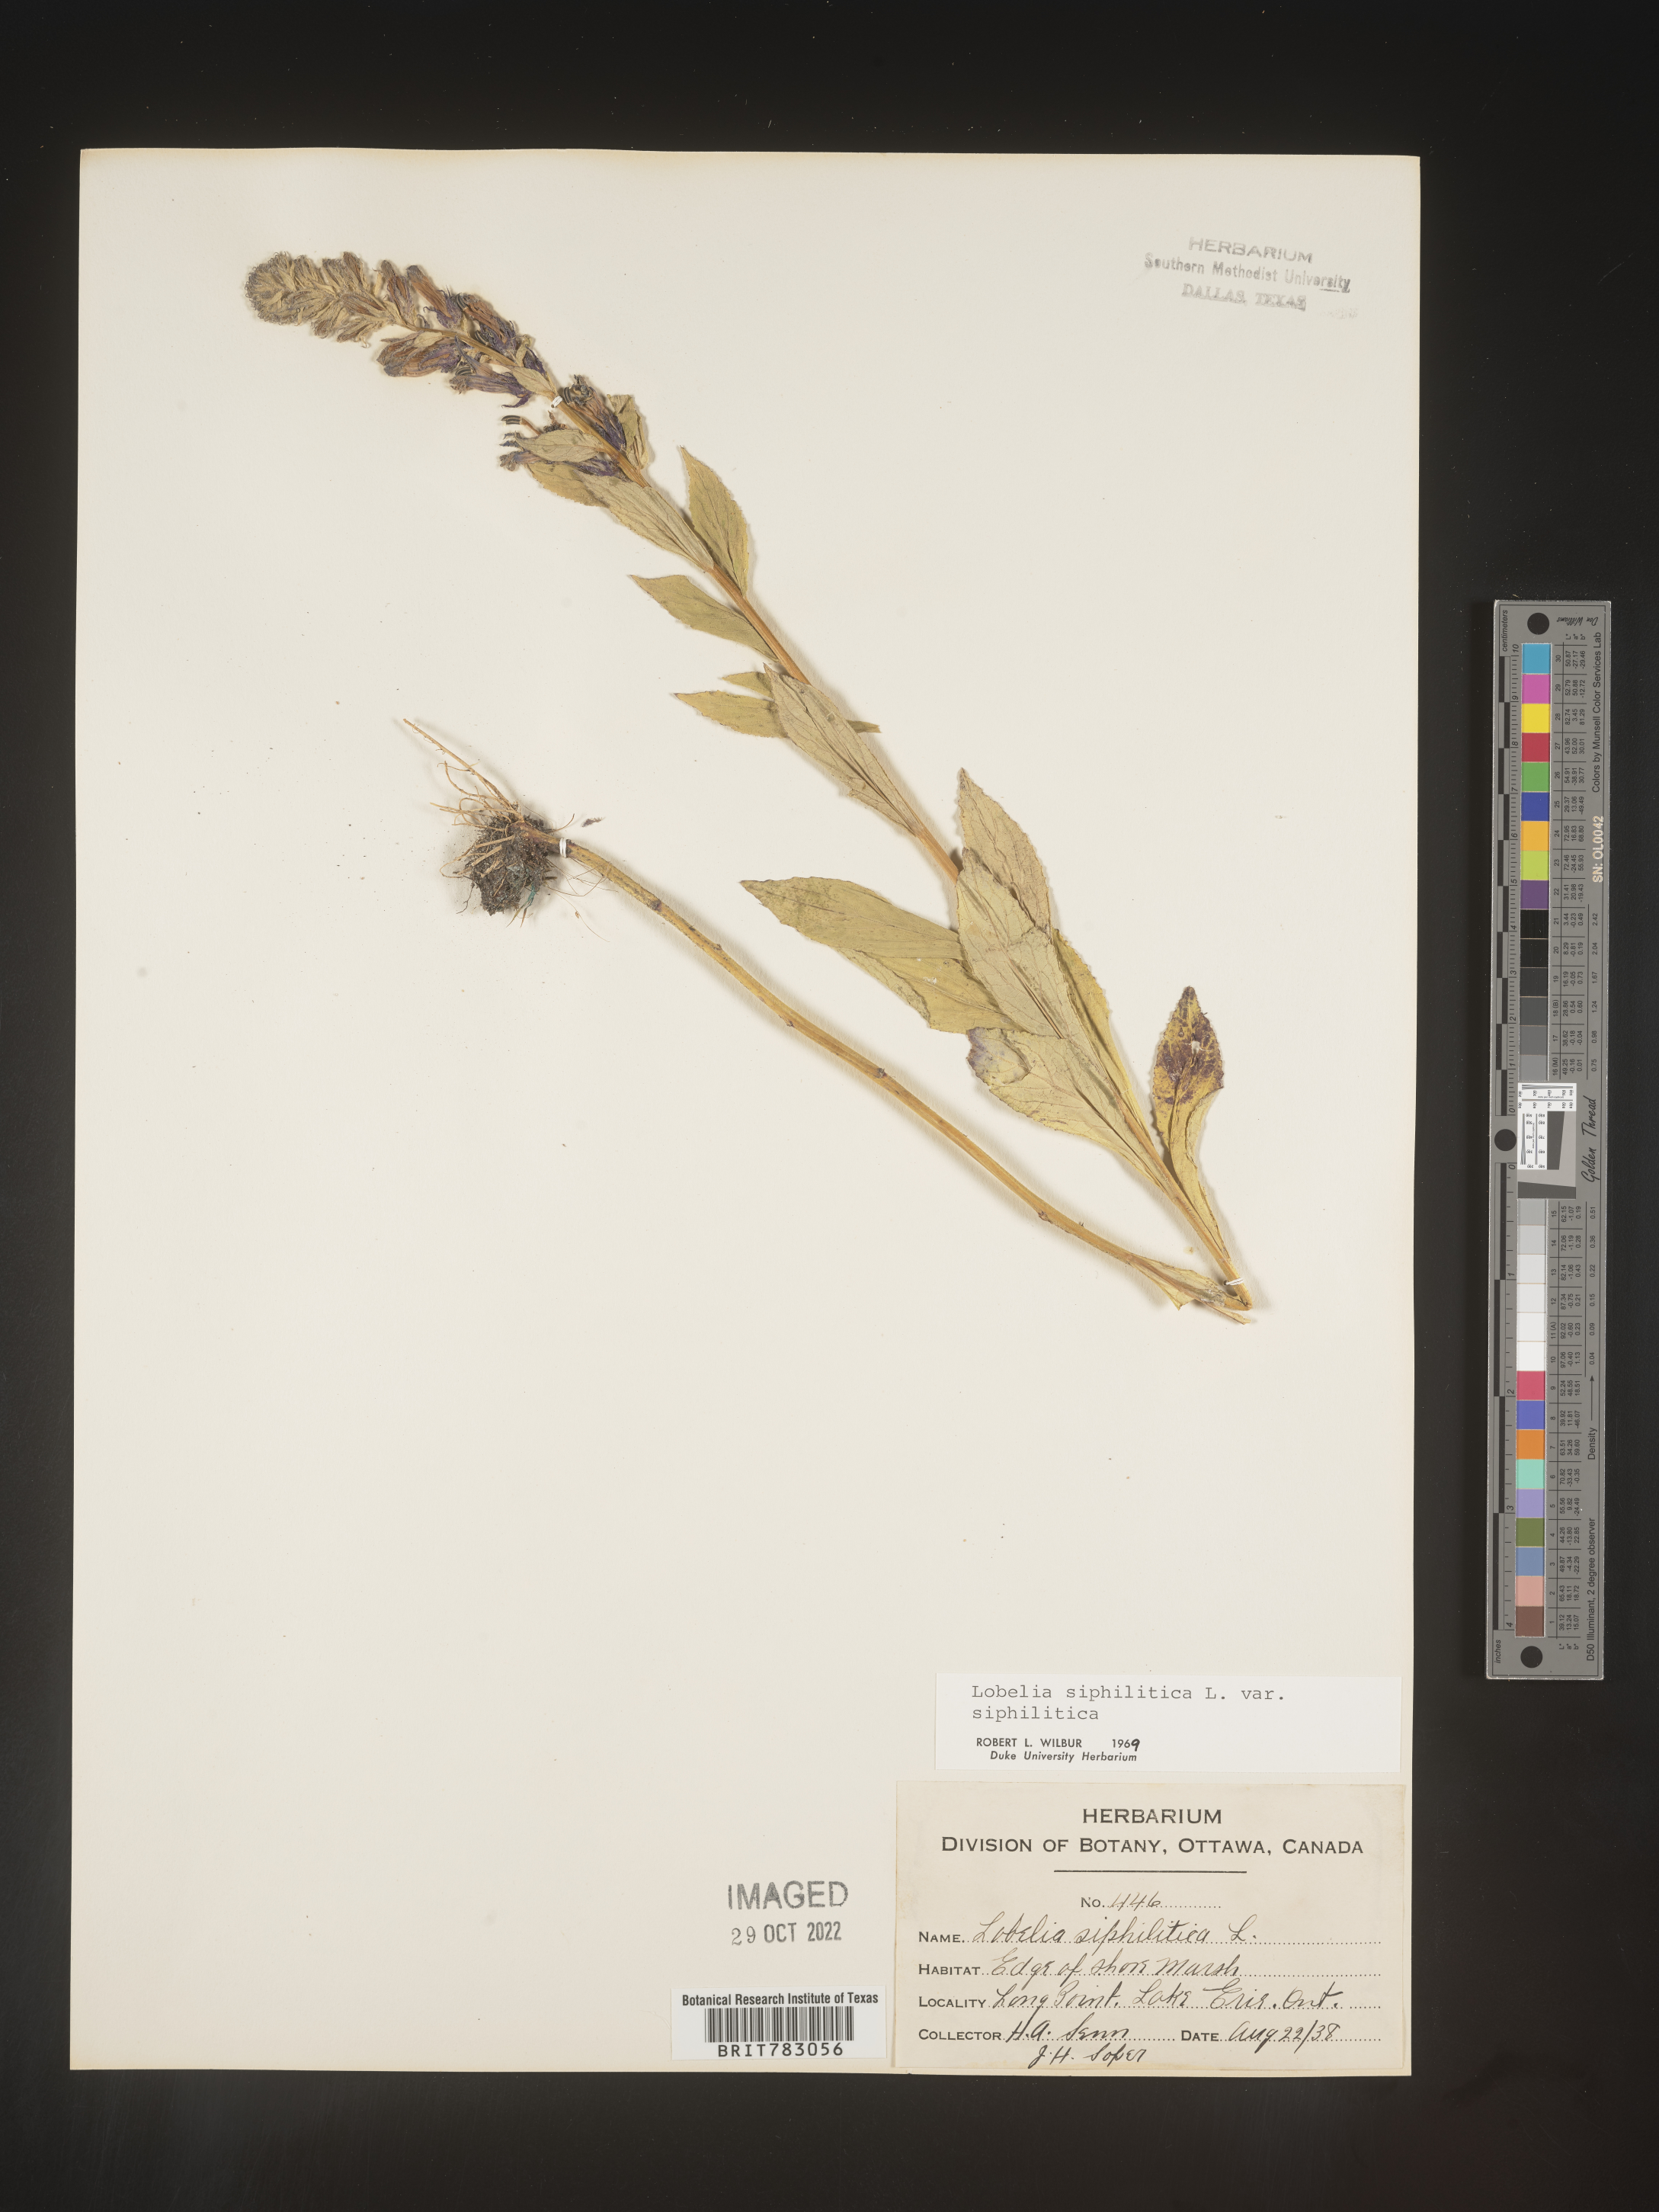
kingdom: Plantae
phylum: Tracheophyta
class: Magnoliopsida
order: Asterales
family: Campanulaceae
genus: Lobelia
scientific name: Lobelia siphilitica
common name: Great lobelia
